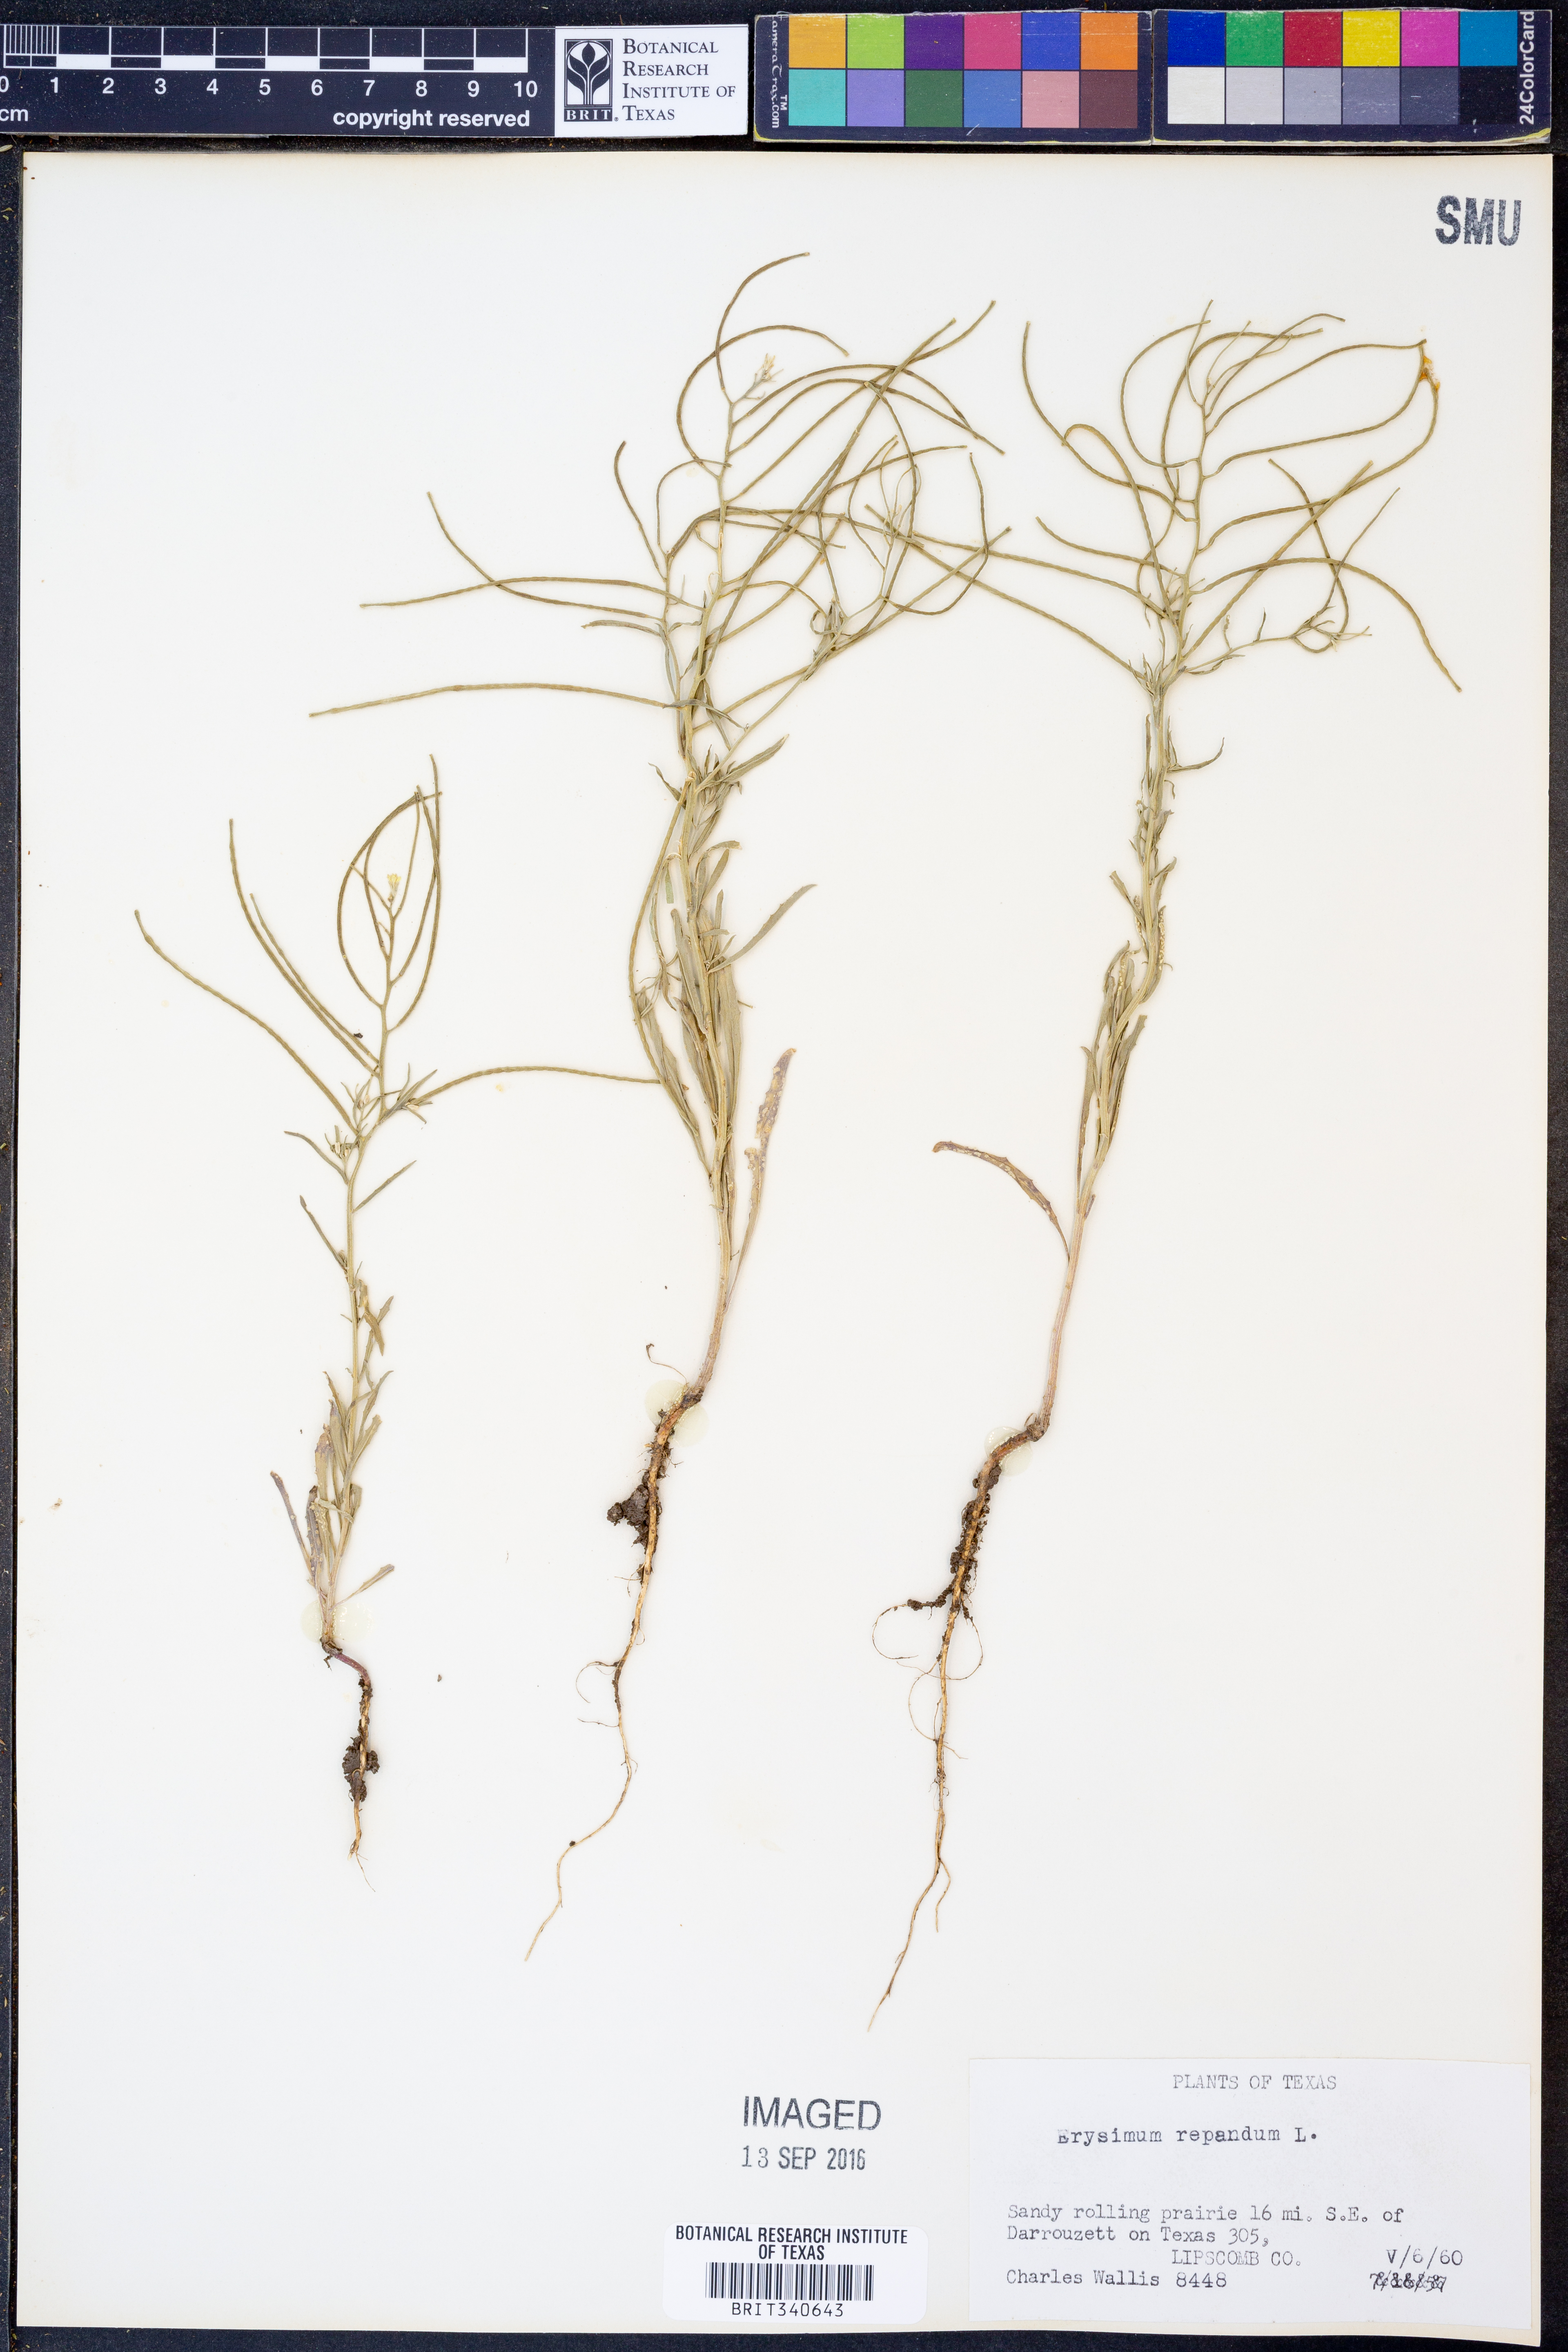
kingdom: Plantae
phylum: Tracheophyta
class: Magnoliopsida
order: Brassicales
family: Brassicaceae
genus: Erysimum
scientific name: Erysimum repandum
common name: Spreading wallflower
